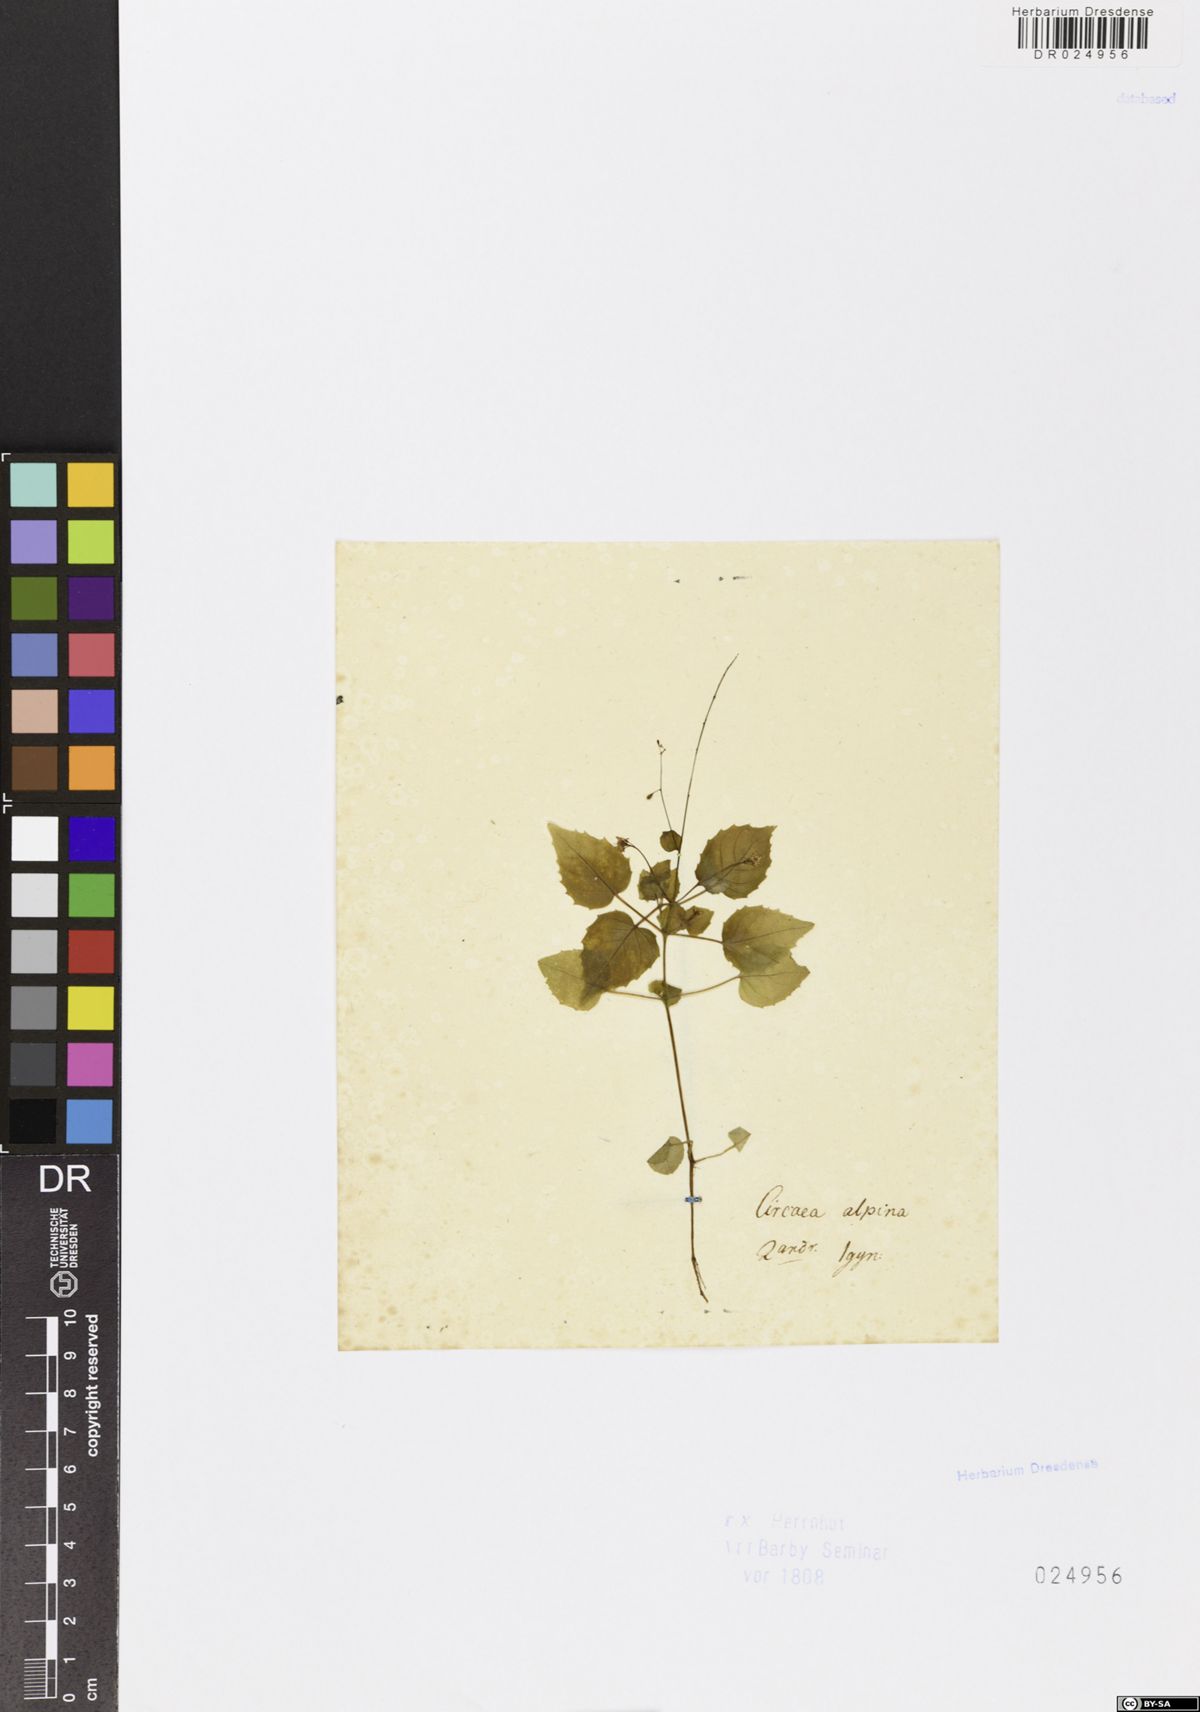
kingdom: Plantae
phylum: Tracheophyta
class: Magnoliopsida
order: Myrtales
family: Onagraceae
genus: Circaea
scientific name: Circaea alpina
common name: Alpine enchanter's-nightshade
